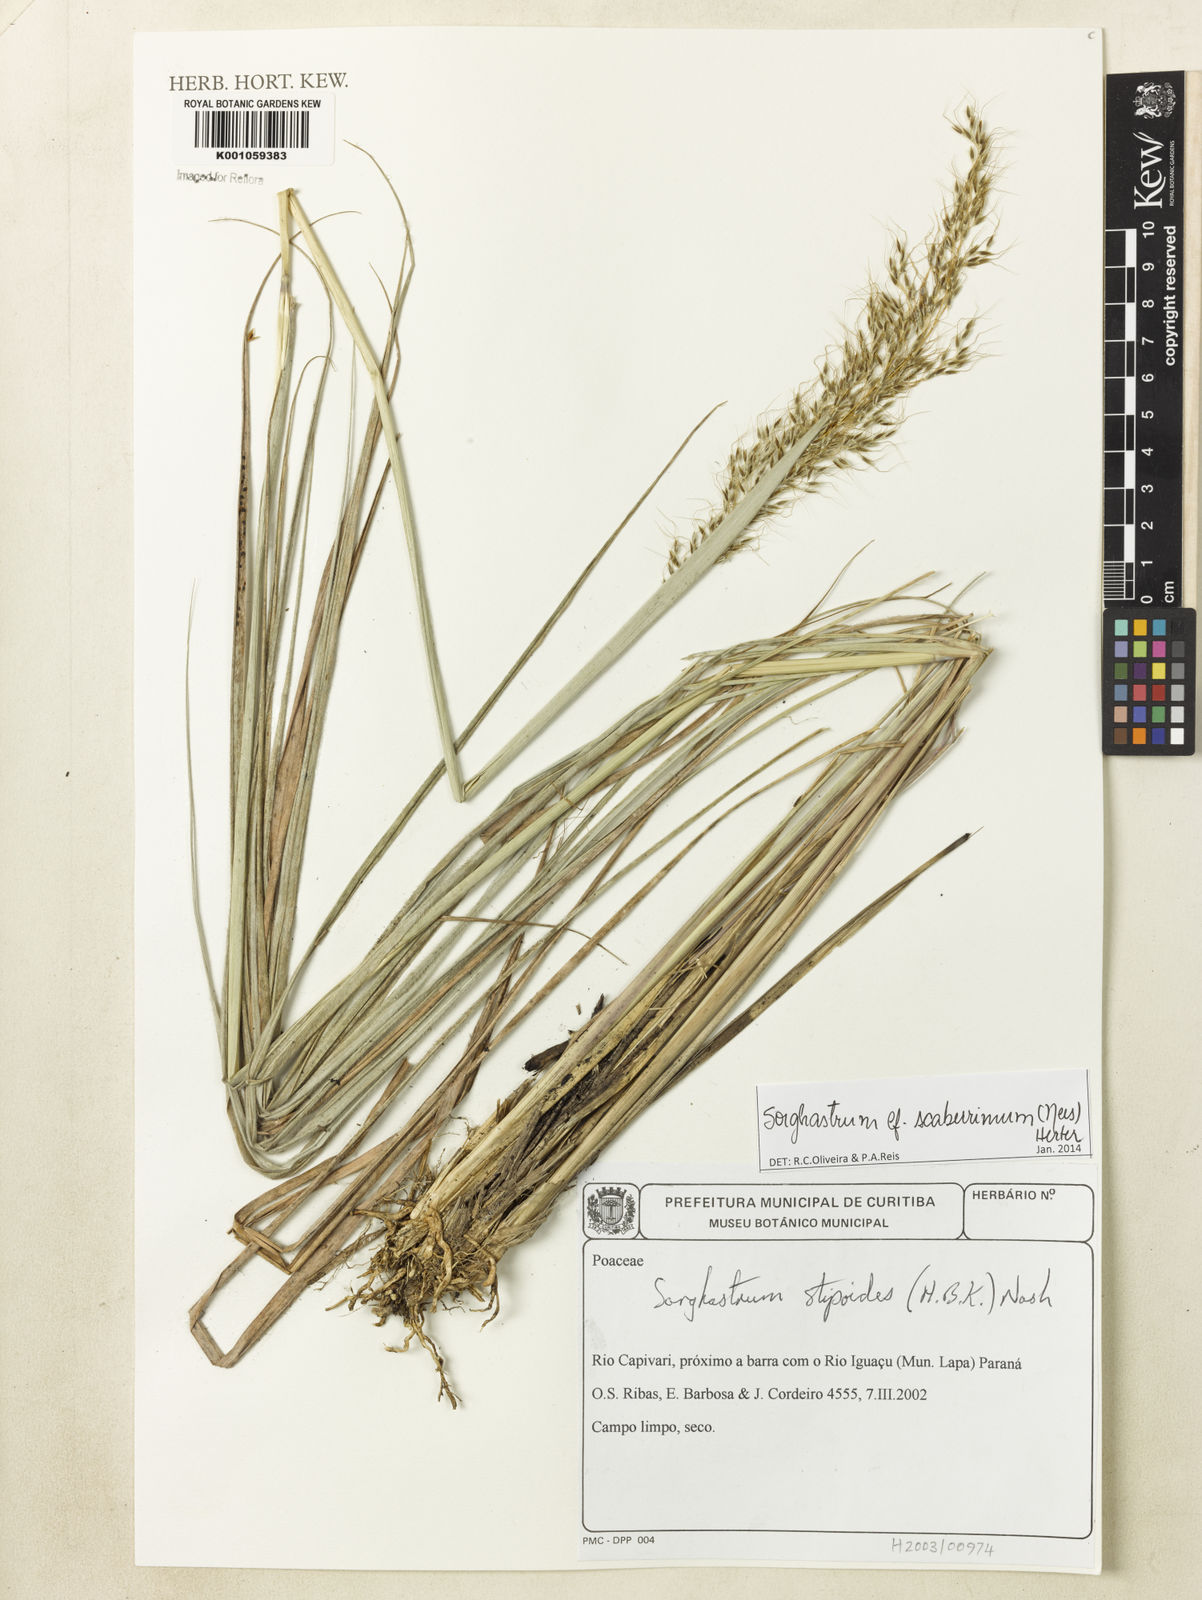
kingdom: Plantae
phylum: Tracheophyta
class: Liliopsida
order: Poales
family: Poaceae
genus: Sorghastrum
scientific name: Sorghastrum scaberrimum
